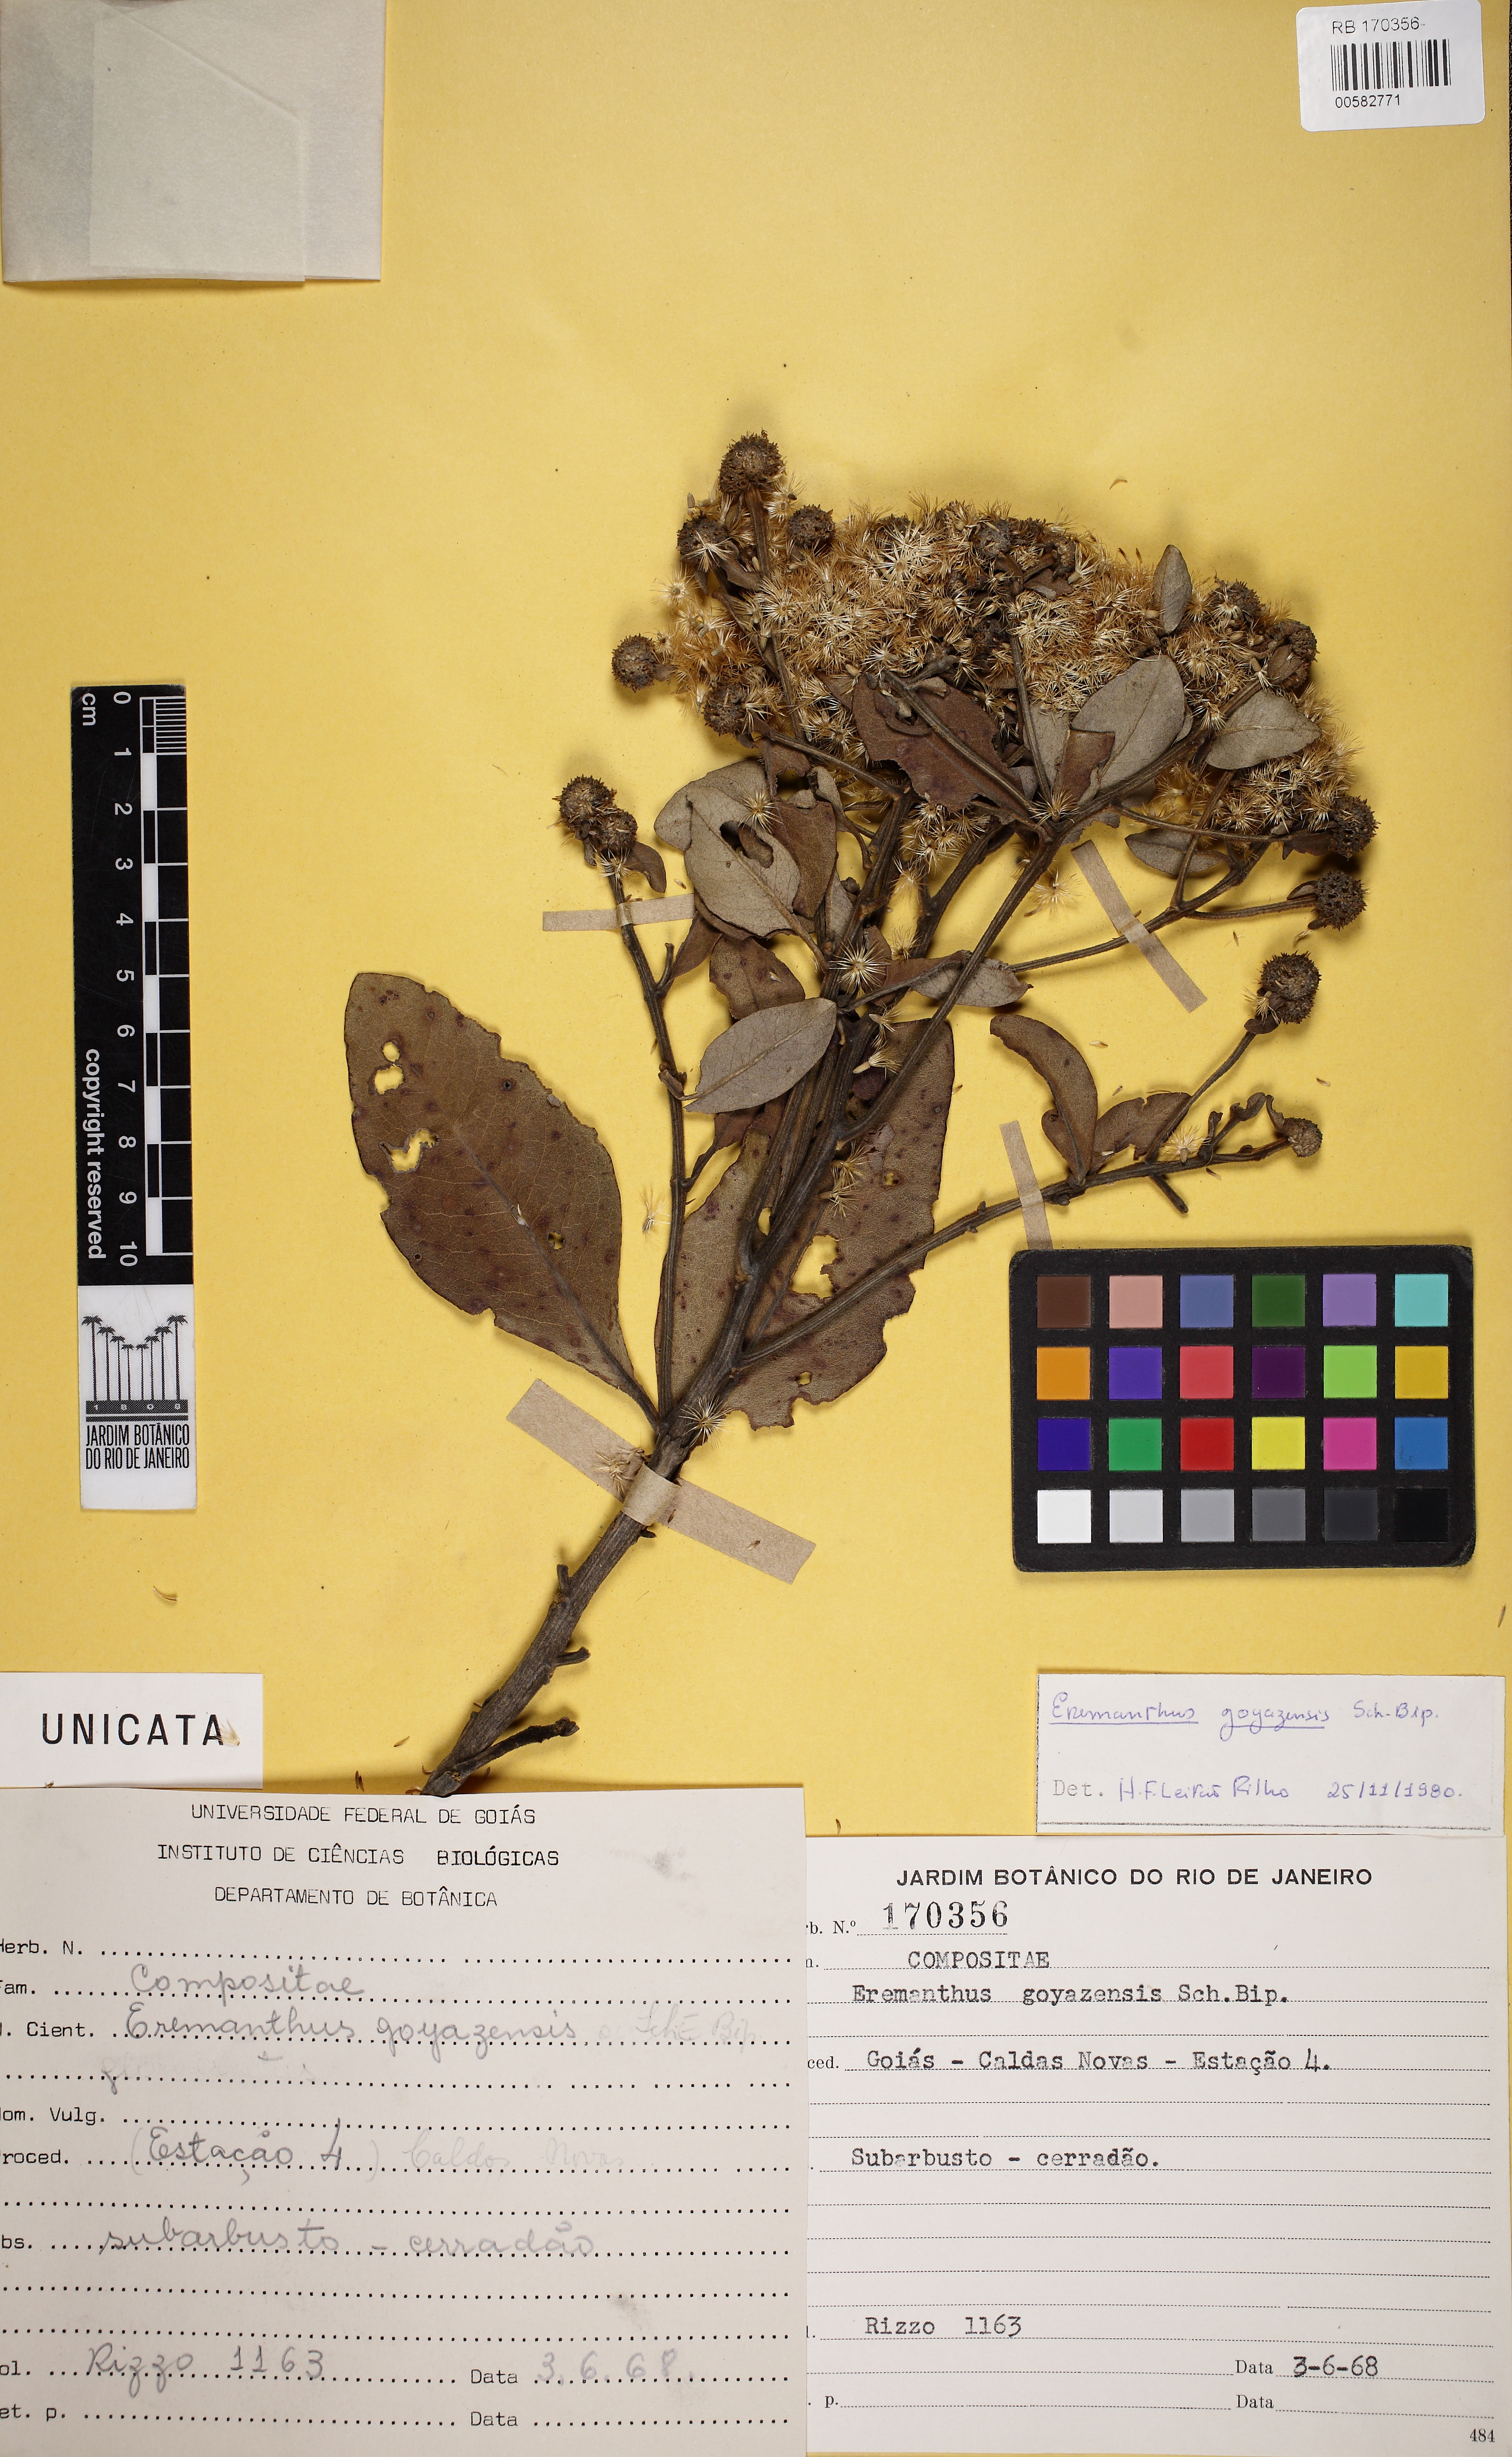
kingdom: Plantae
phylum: Tracheophyta
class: Magnoliopsida
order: Asterales
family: Asteraceae
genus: Eremanthus
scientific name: Eremanthus goyazensis
